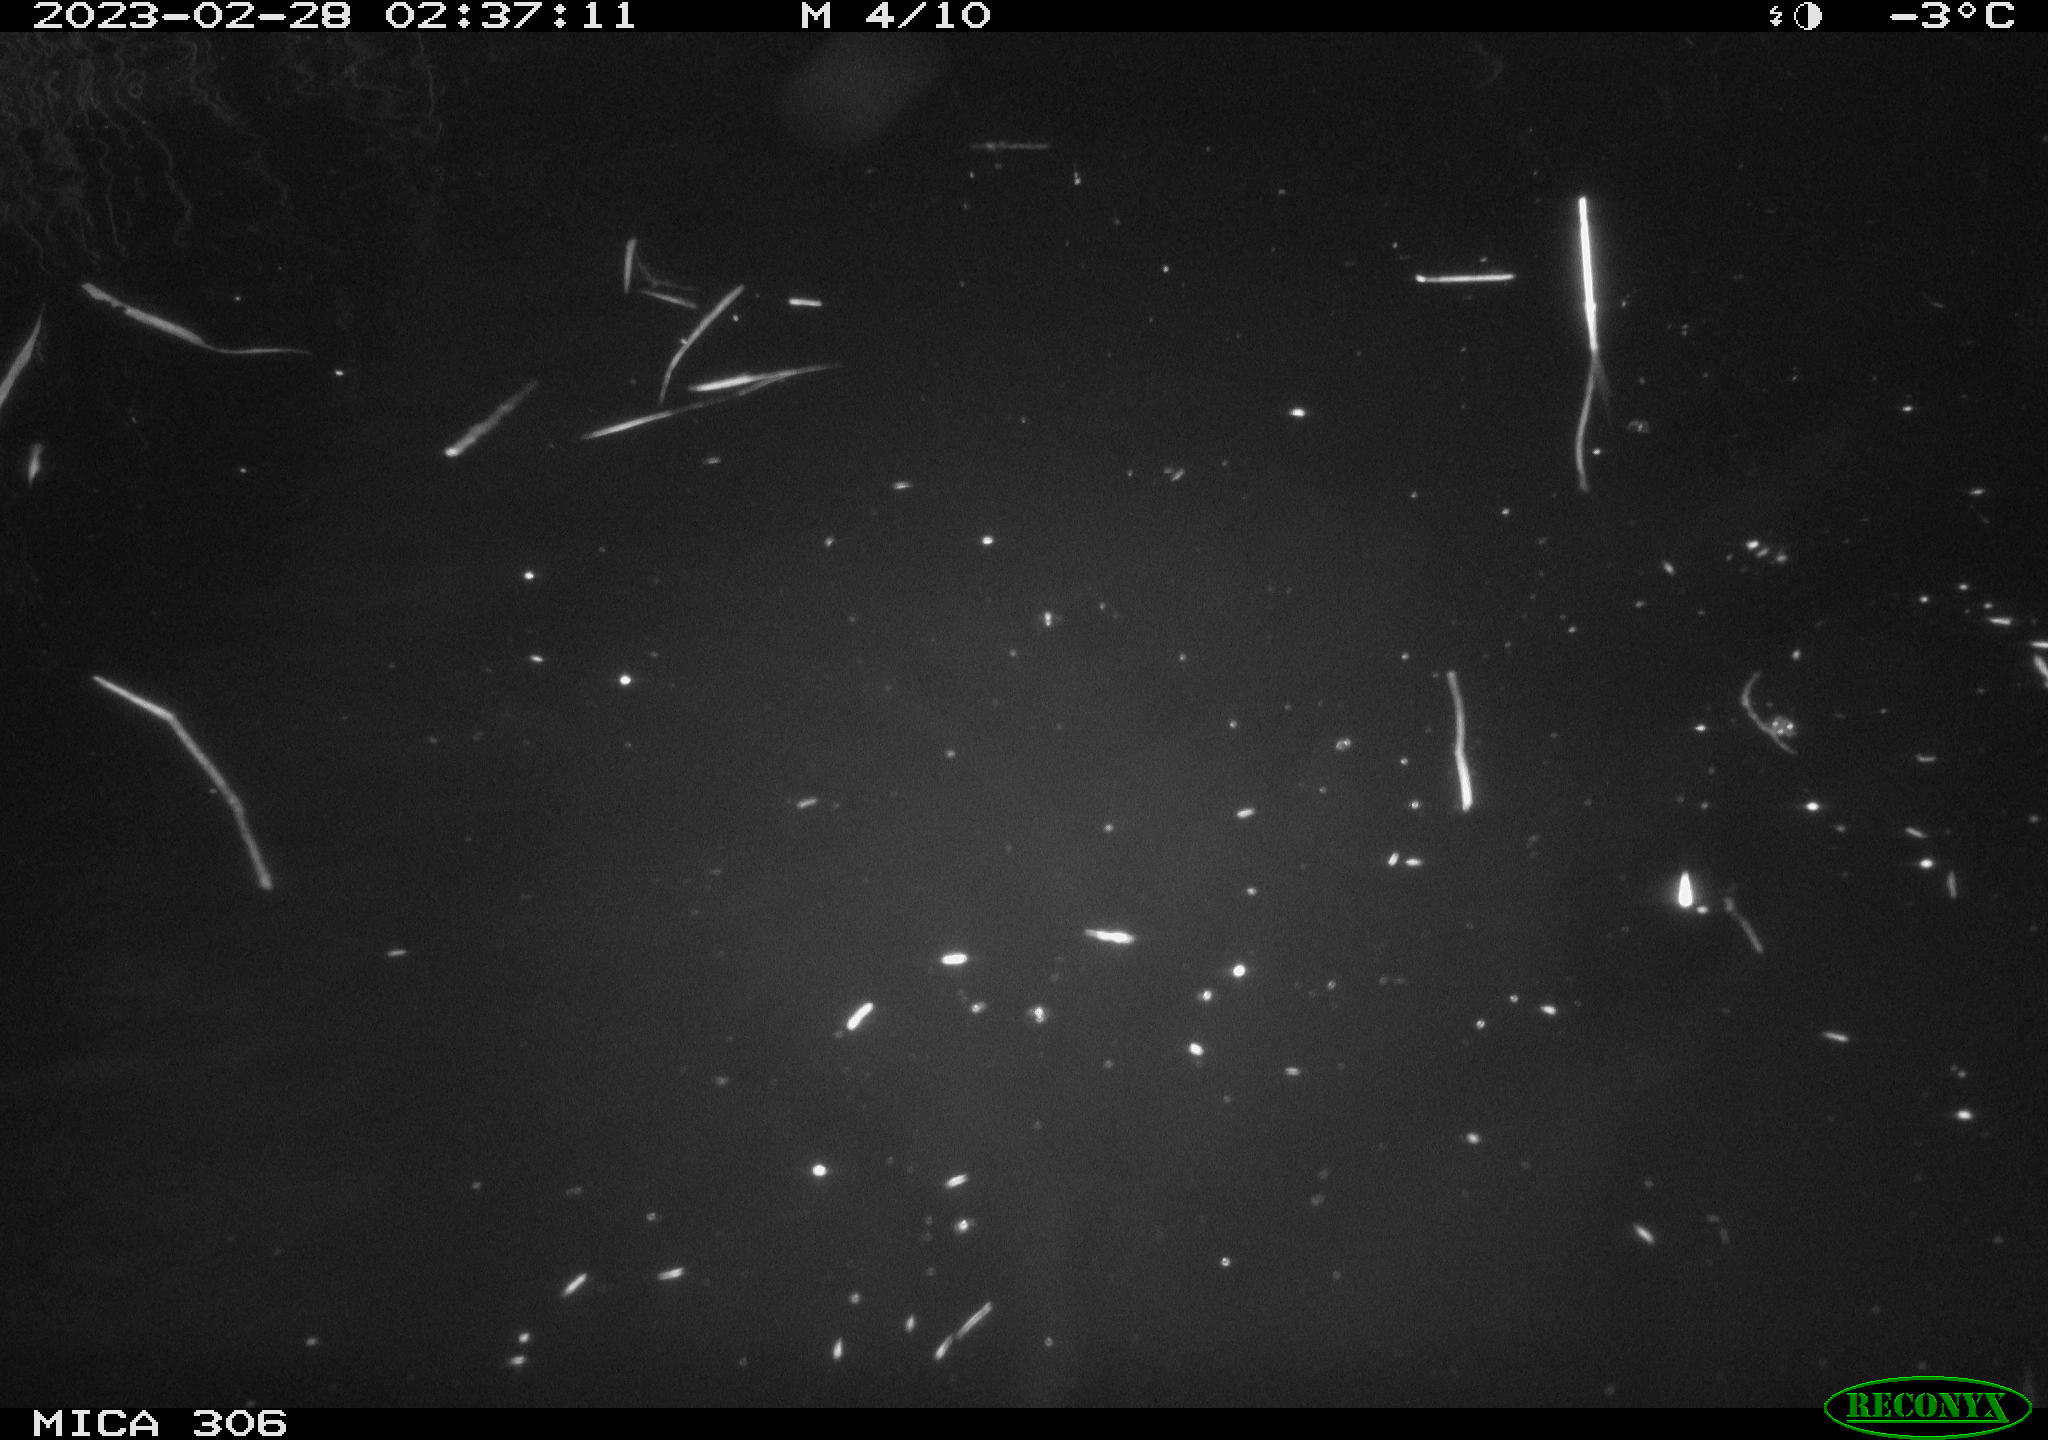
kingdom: Animalia
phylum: Chordata
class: Mammalia
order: Rodentia
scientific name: Rodentia
